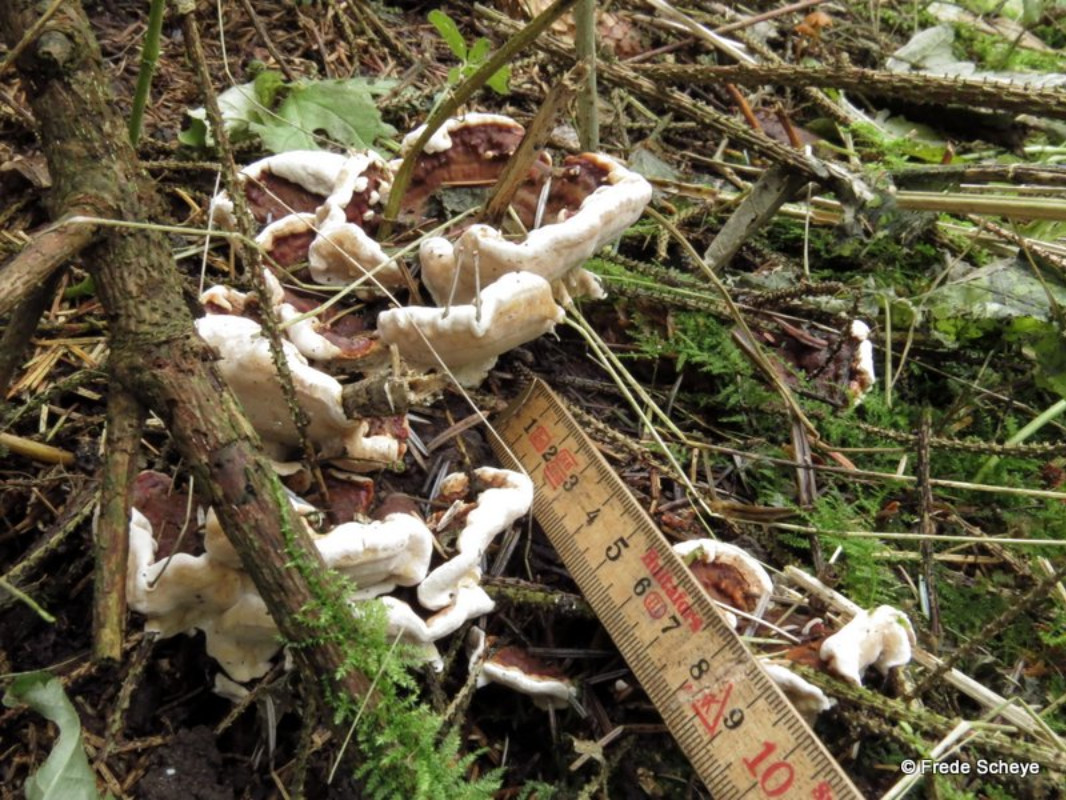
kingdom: Fungi
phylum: Basidiomycota
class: Agaricomycetes
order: Russulales
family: Bondarzewiaceae
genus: Heterobasidion
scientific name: Heterobasidion annosum
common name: almindelig rodfordærver
